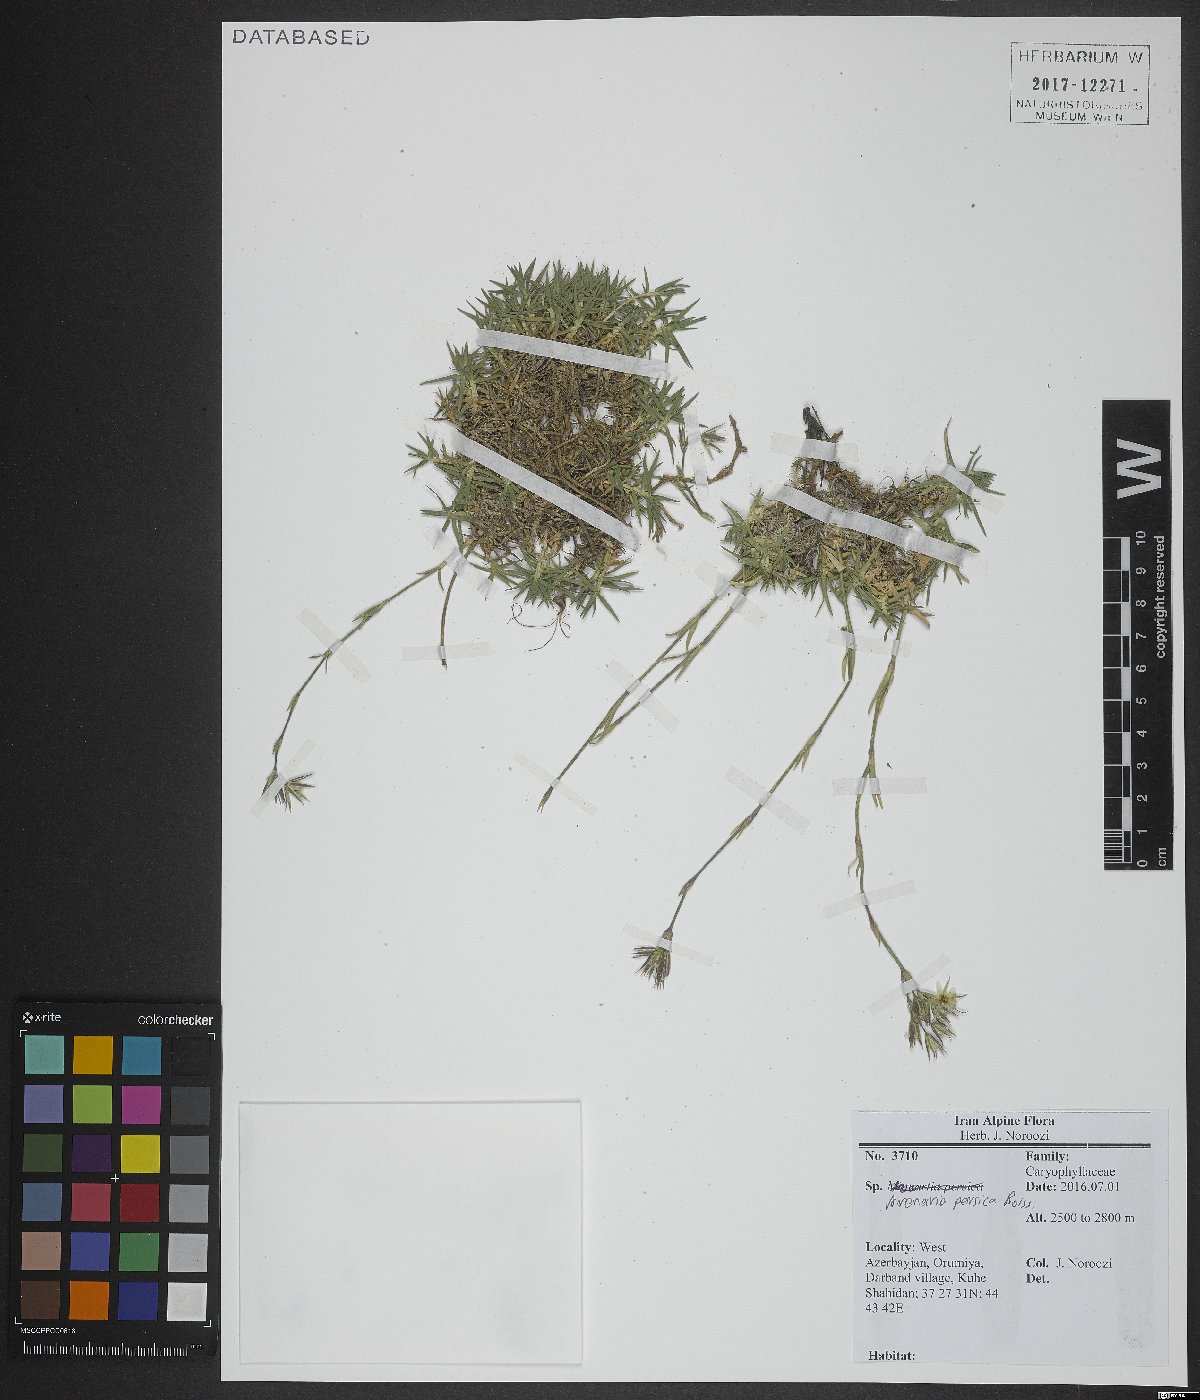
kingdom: Plantae
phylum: Tracheophyta
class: Magnoliopsida
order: Caryophyllales
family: Caryophyllaceae
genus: Eremogone
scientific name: Eremogone persica
